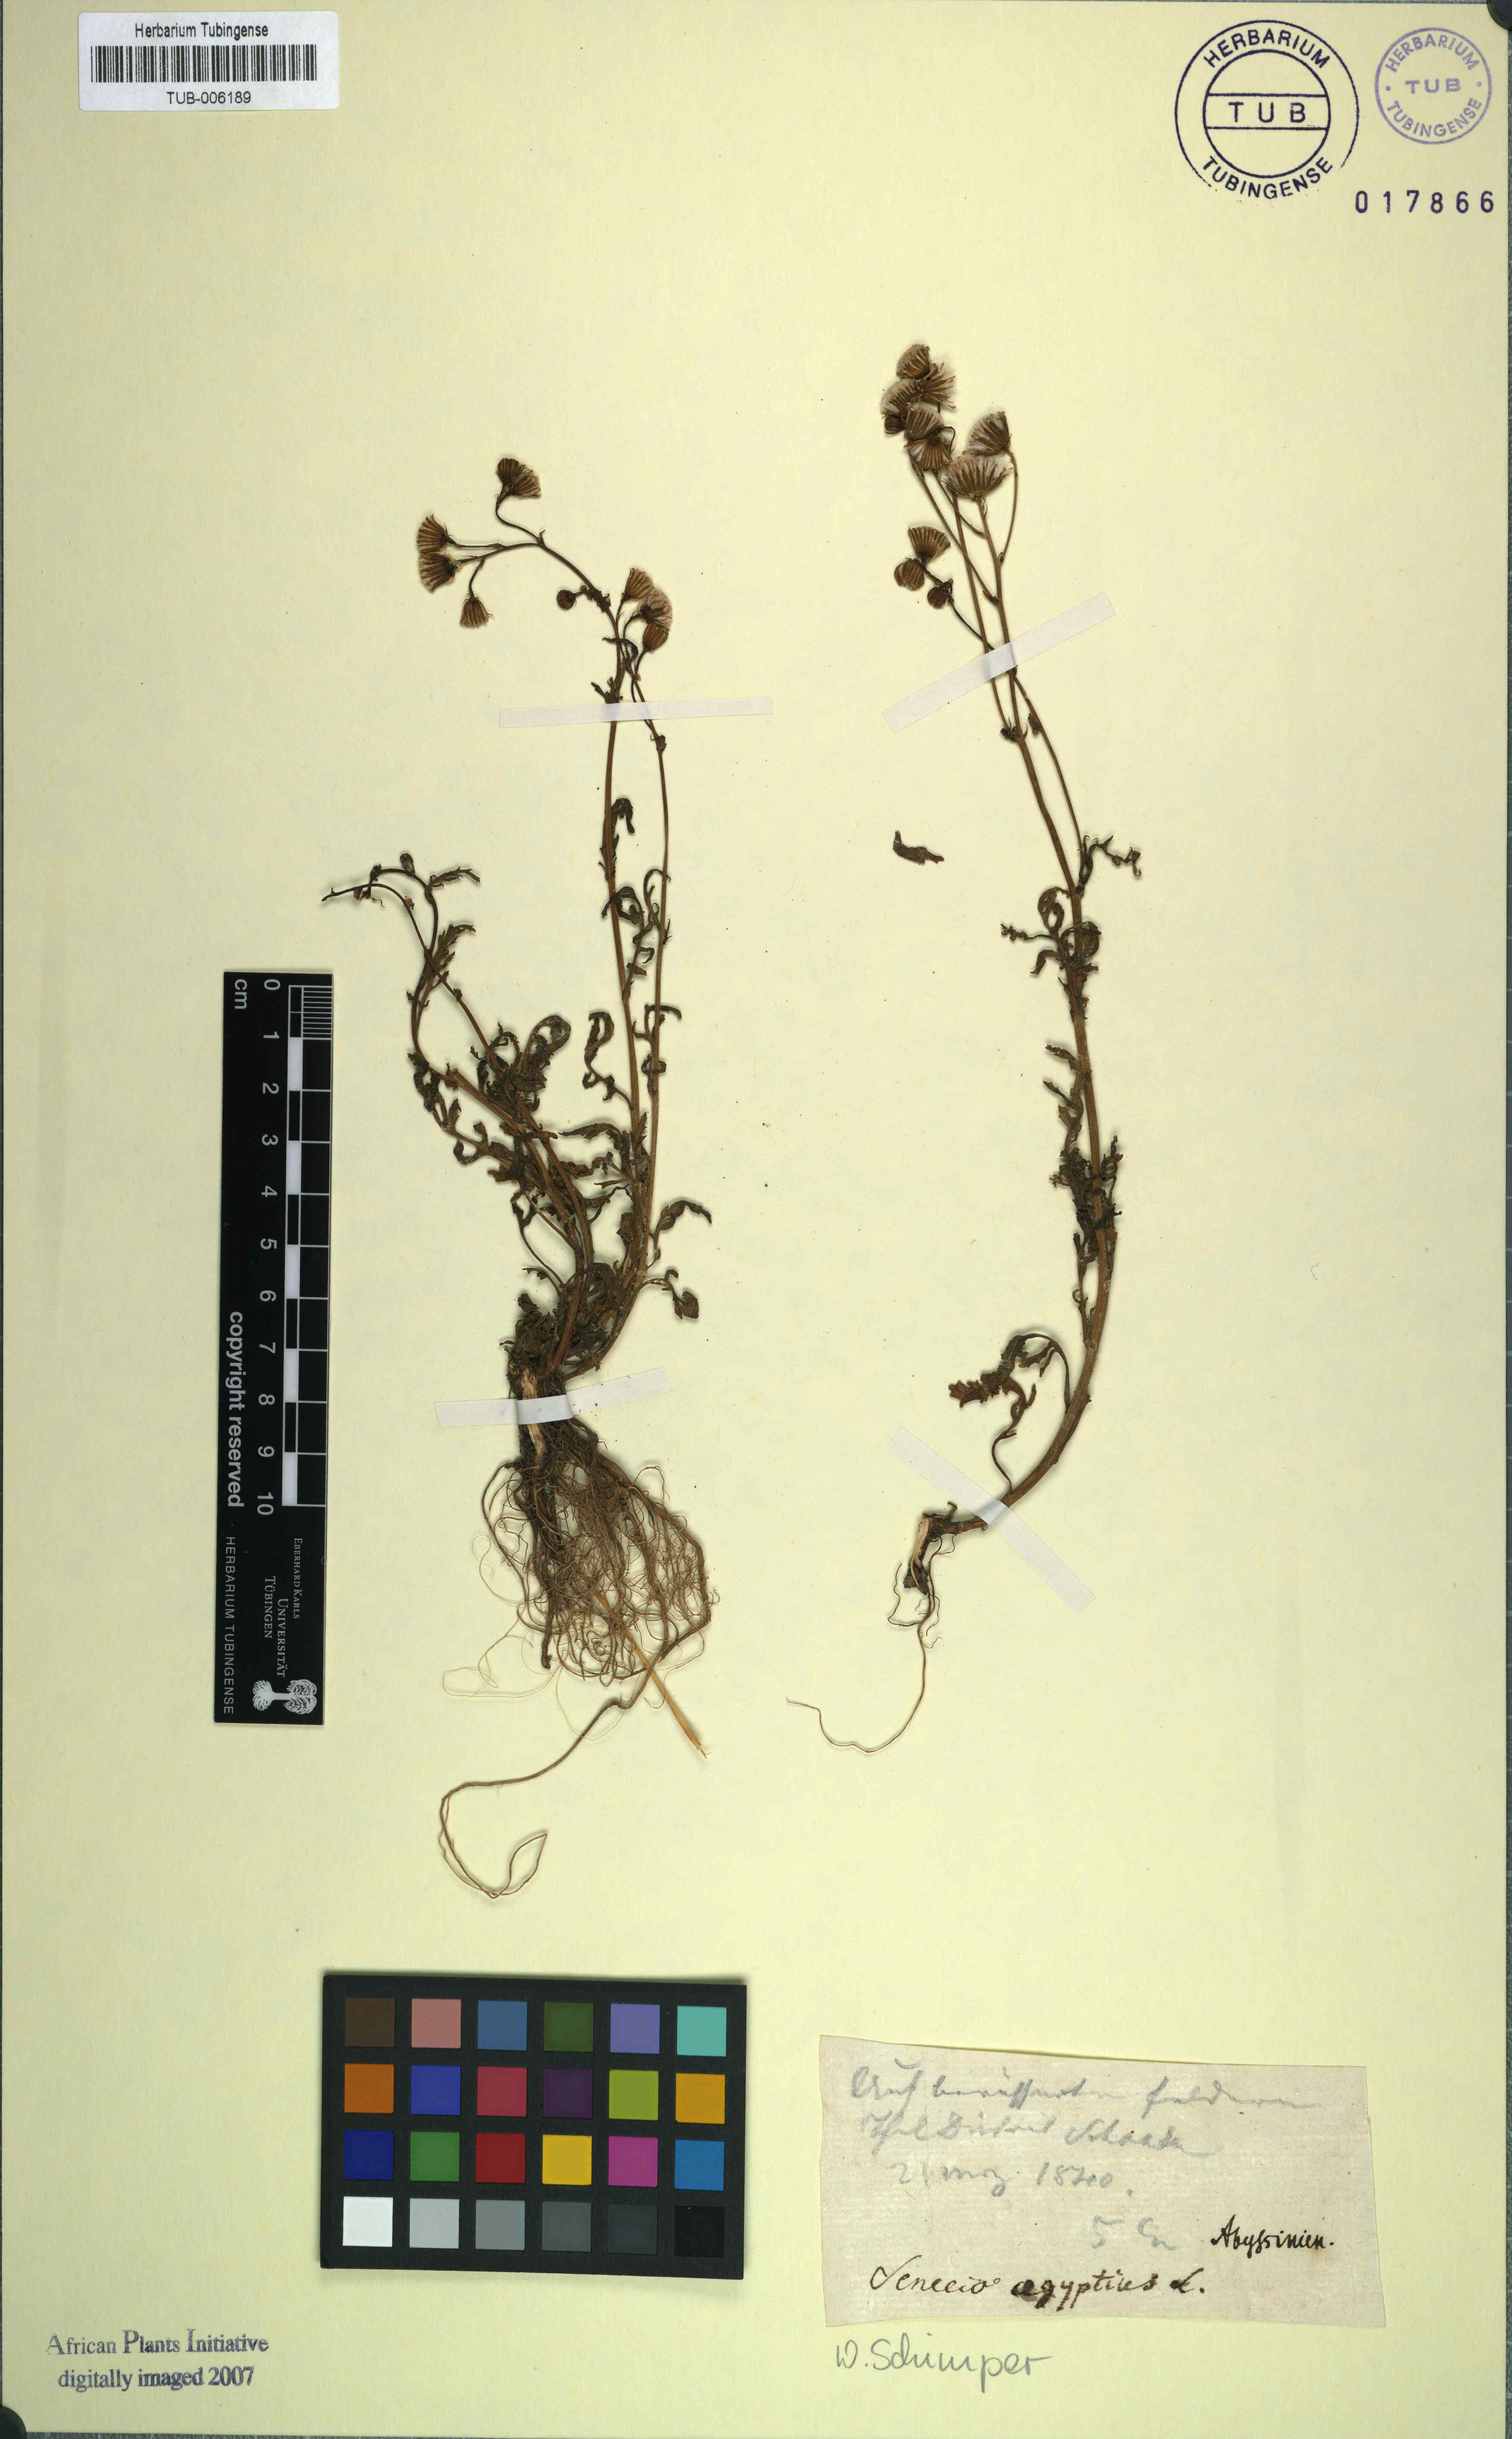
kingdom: Plantae
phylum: Tracheophyta
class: Magnoliopsida
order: Asterales
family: Asteraceae
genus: Senecio
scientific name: Senecio aegyptius
